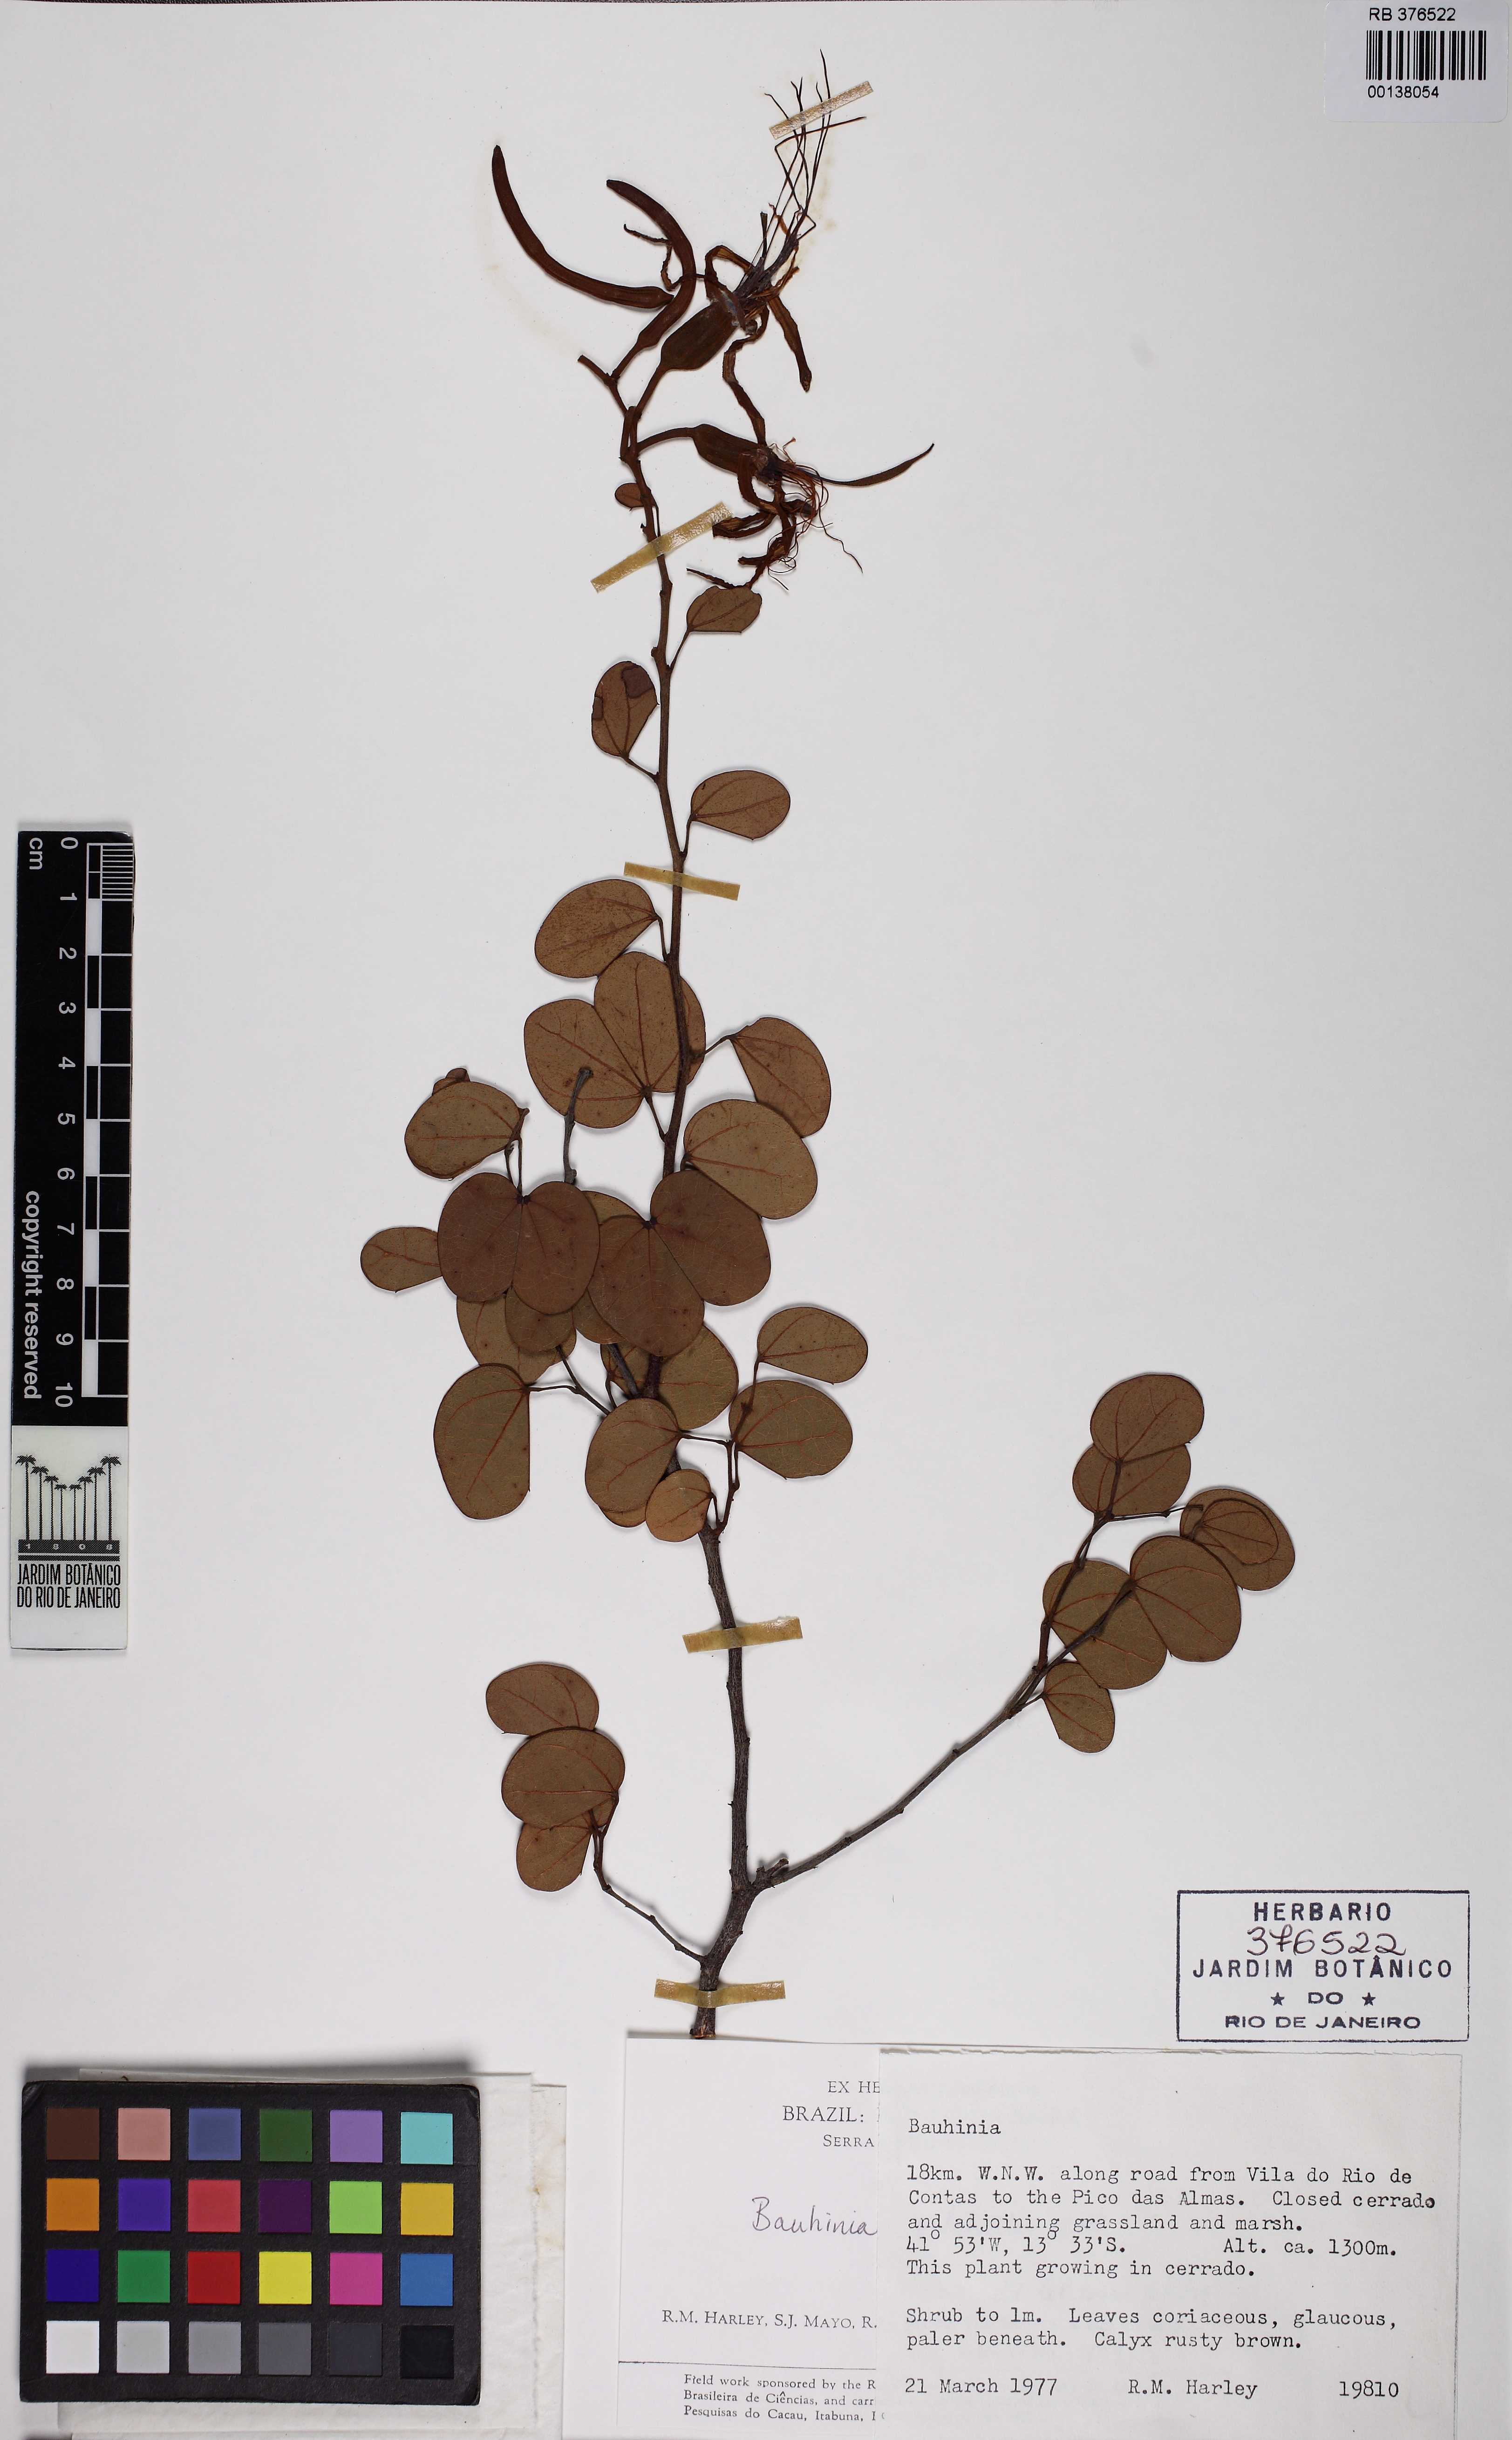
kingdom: Plantae
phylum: Tracheophyta
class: Magnoliopsida
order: Fabales
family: Fabaceae
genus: Bauhinia
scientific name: Bauhinia pulchella
